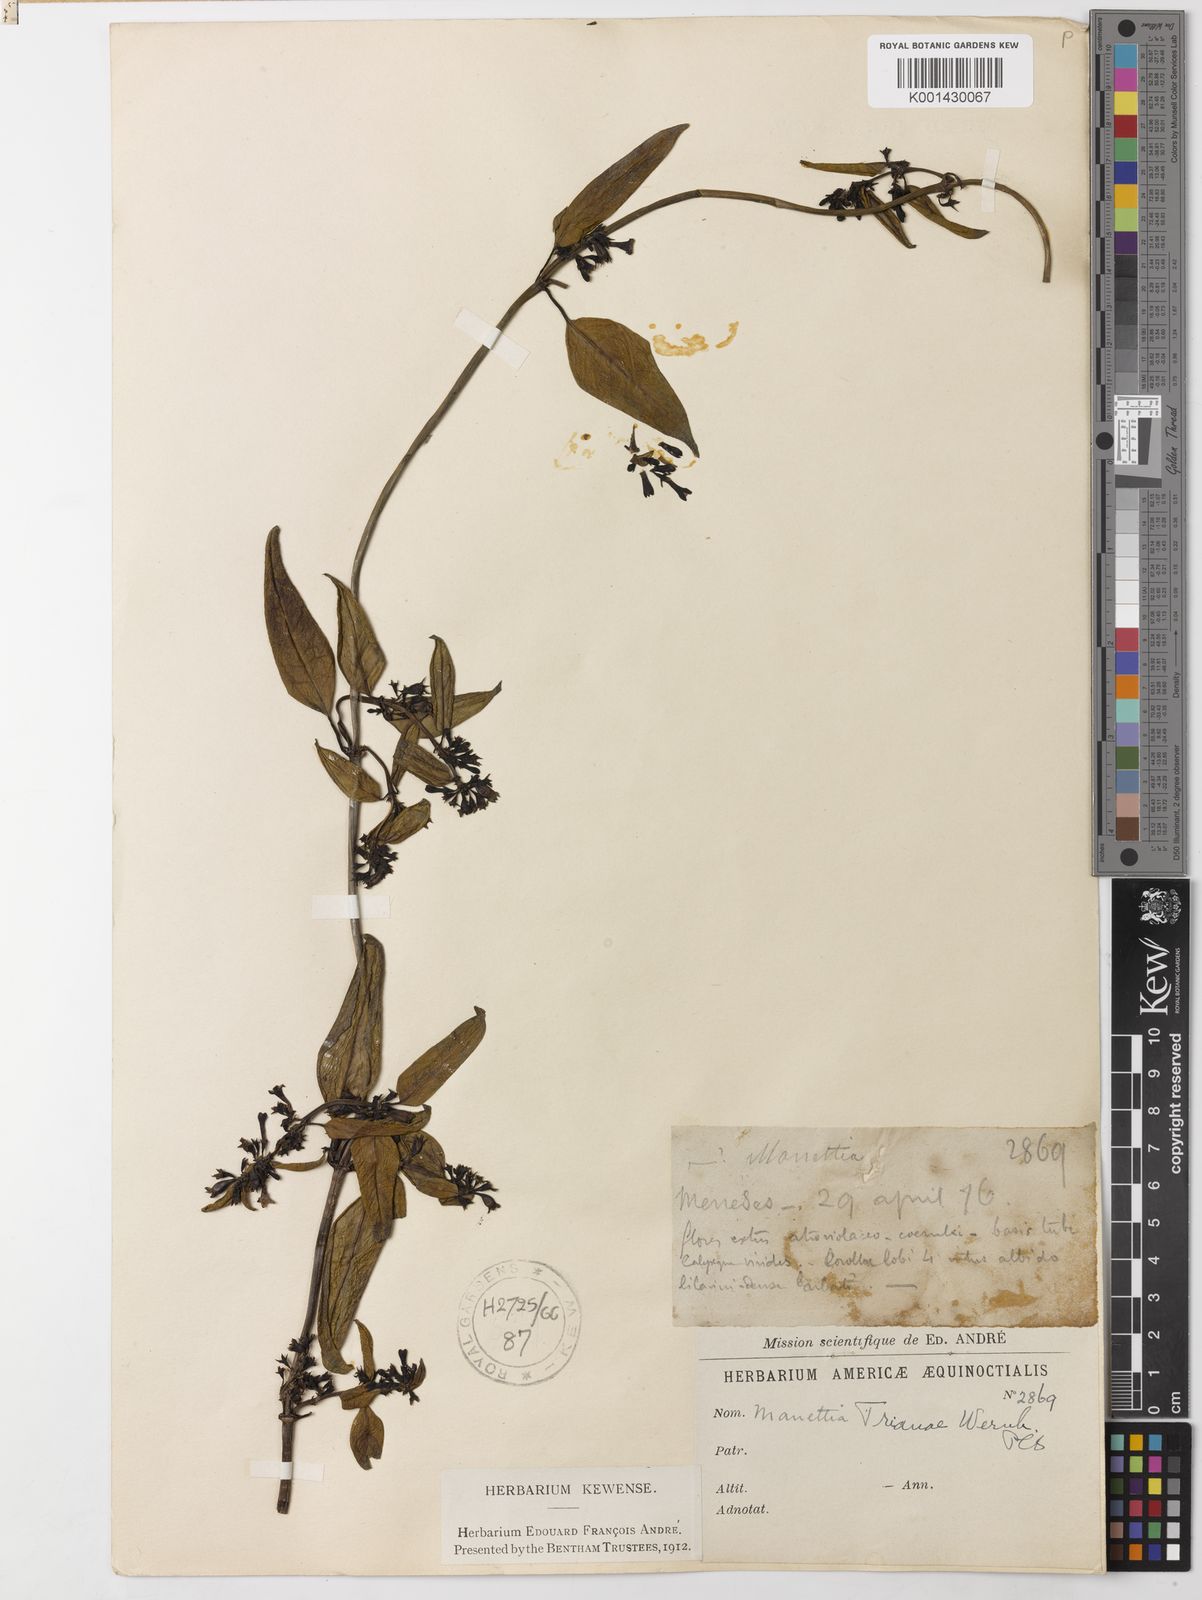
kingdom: Plantae
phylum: Tracheophyta
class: Magnoliopsida
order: Gentianales
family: Rubiaceae
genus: Manettia
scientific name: Manettia trianae
